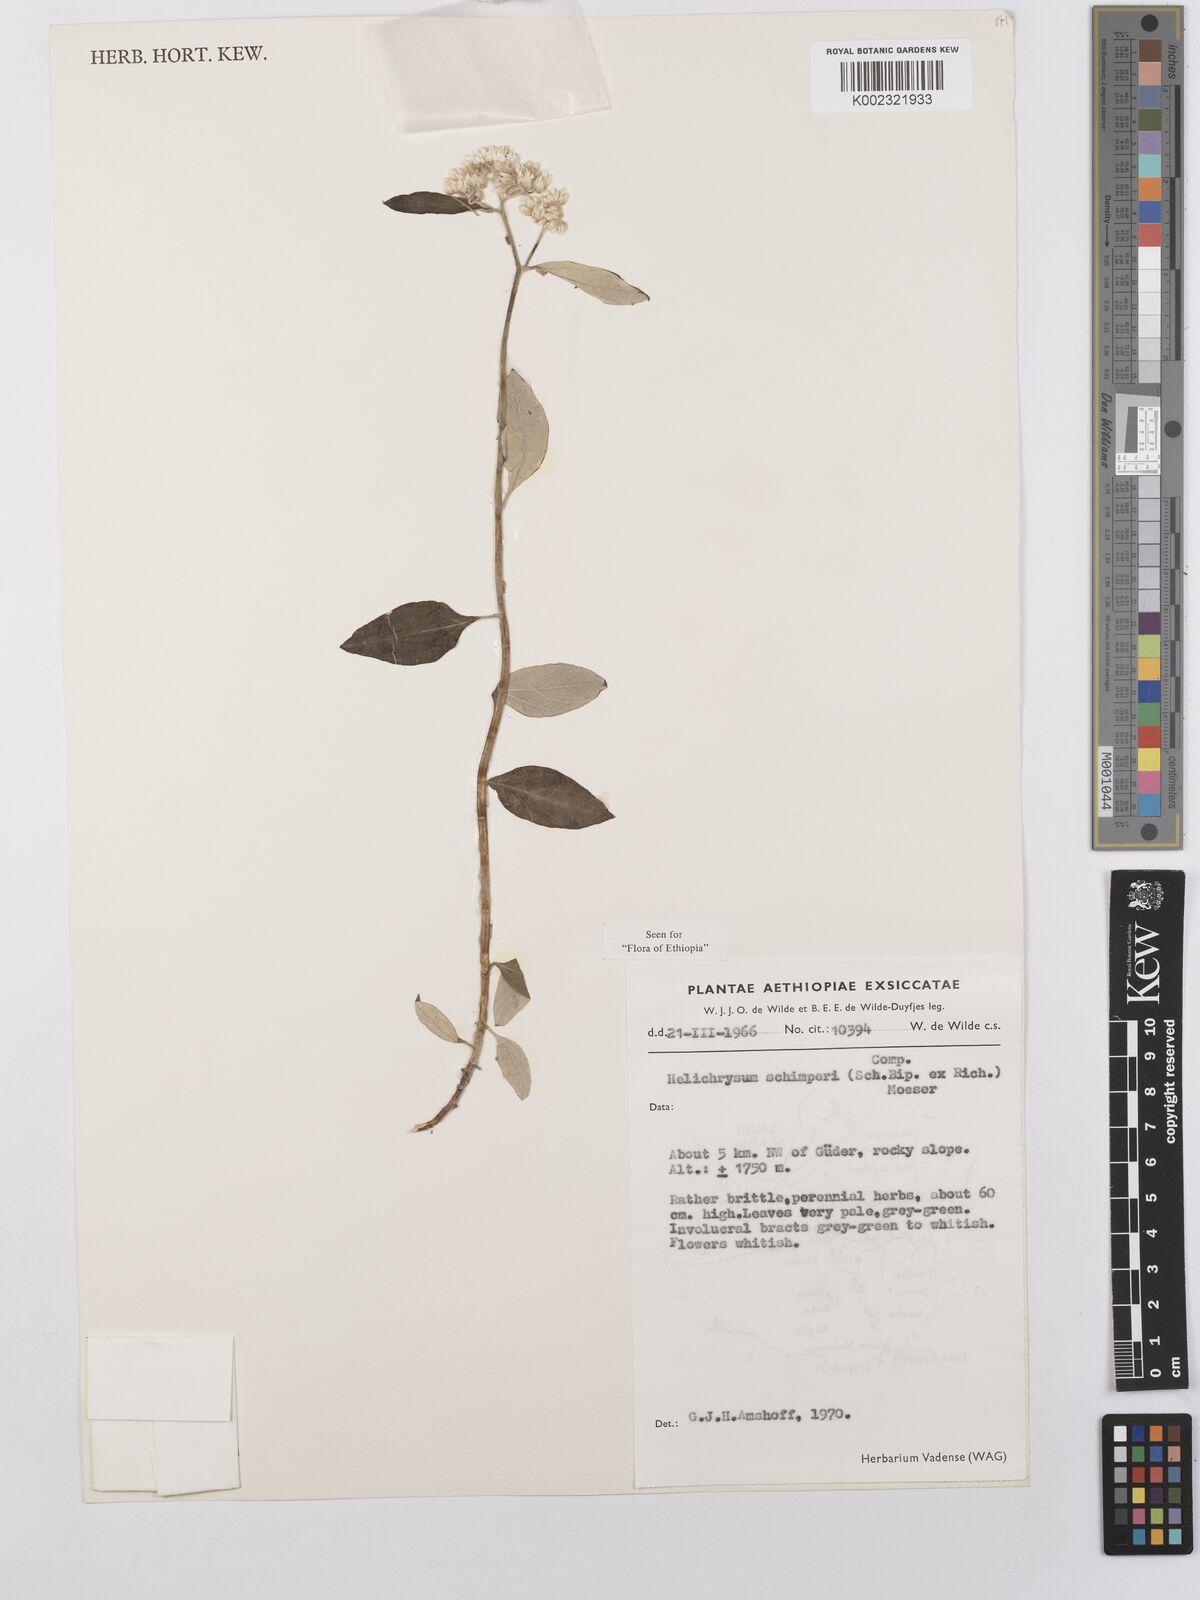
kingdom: Plantae
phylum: Tracheophyta
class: Magnoliopsida
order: Asterales
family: Asteraceae
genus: Helichrysum
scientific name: Helichrysum schimperi
